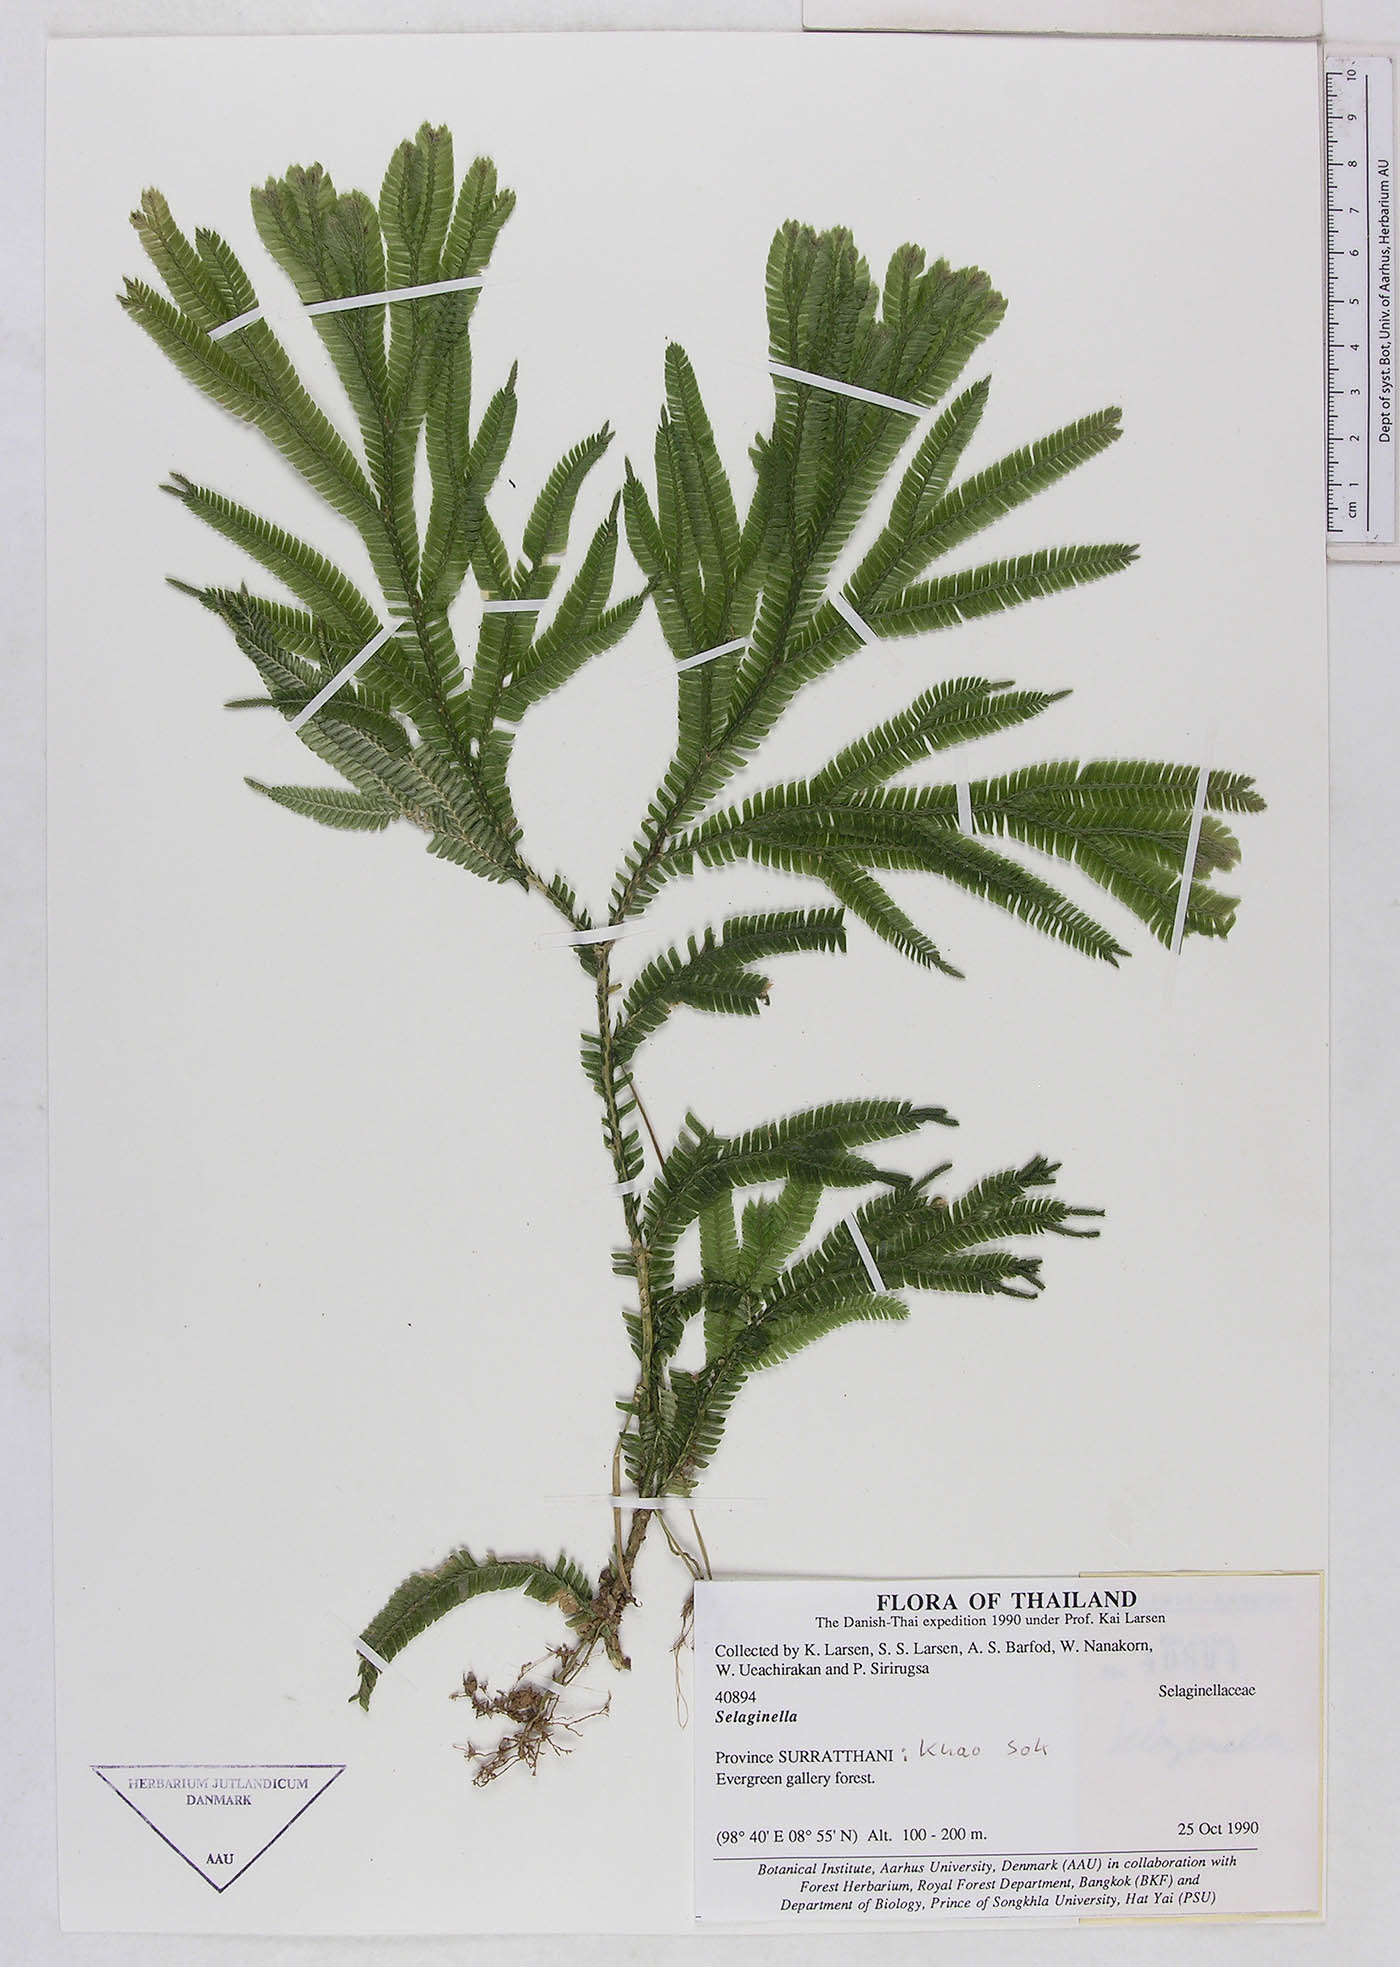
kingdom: Plantae
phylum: Tracheophyta
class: Lycopodiopsida
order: Selaginellales
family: Selaginellaceae
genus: Selaginella
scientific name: Selaginella
